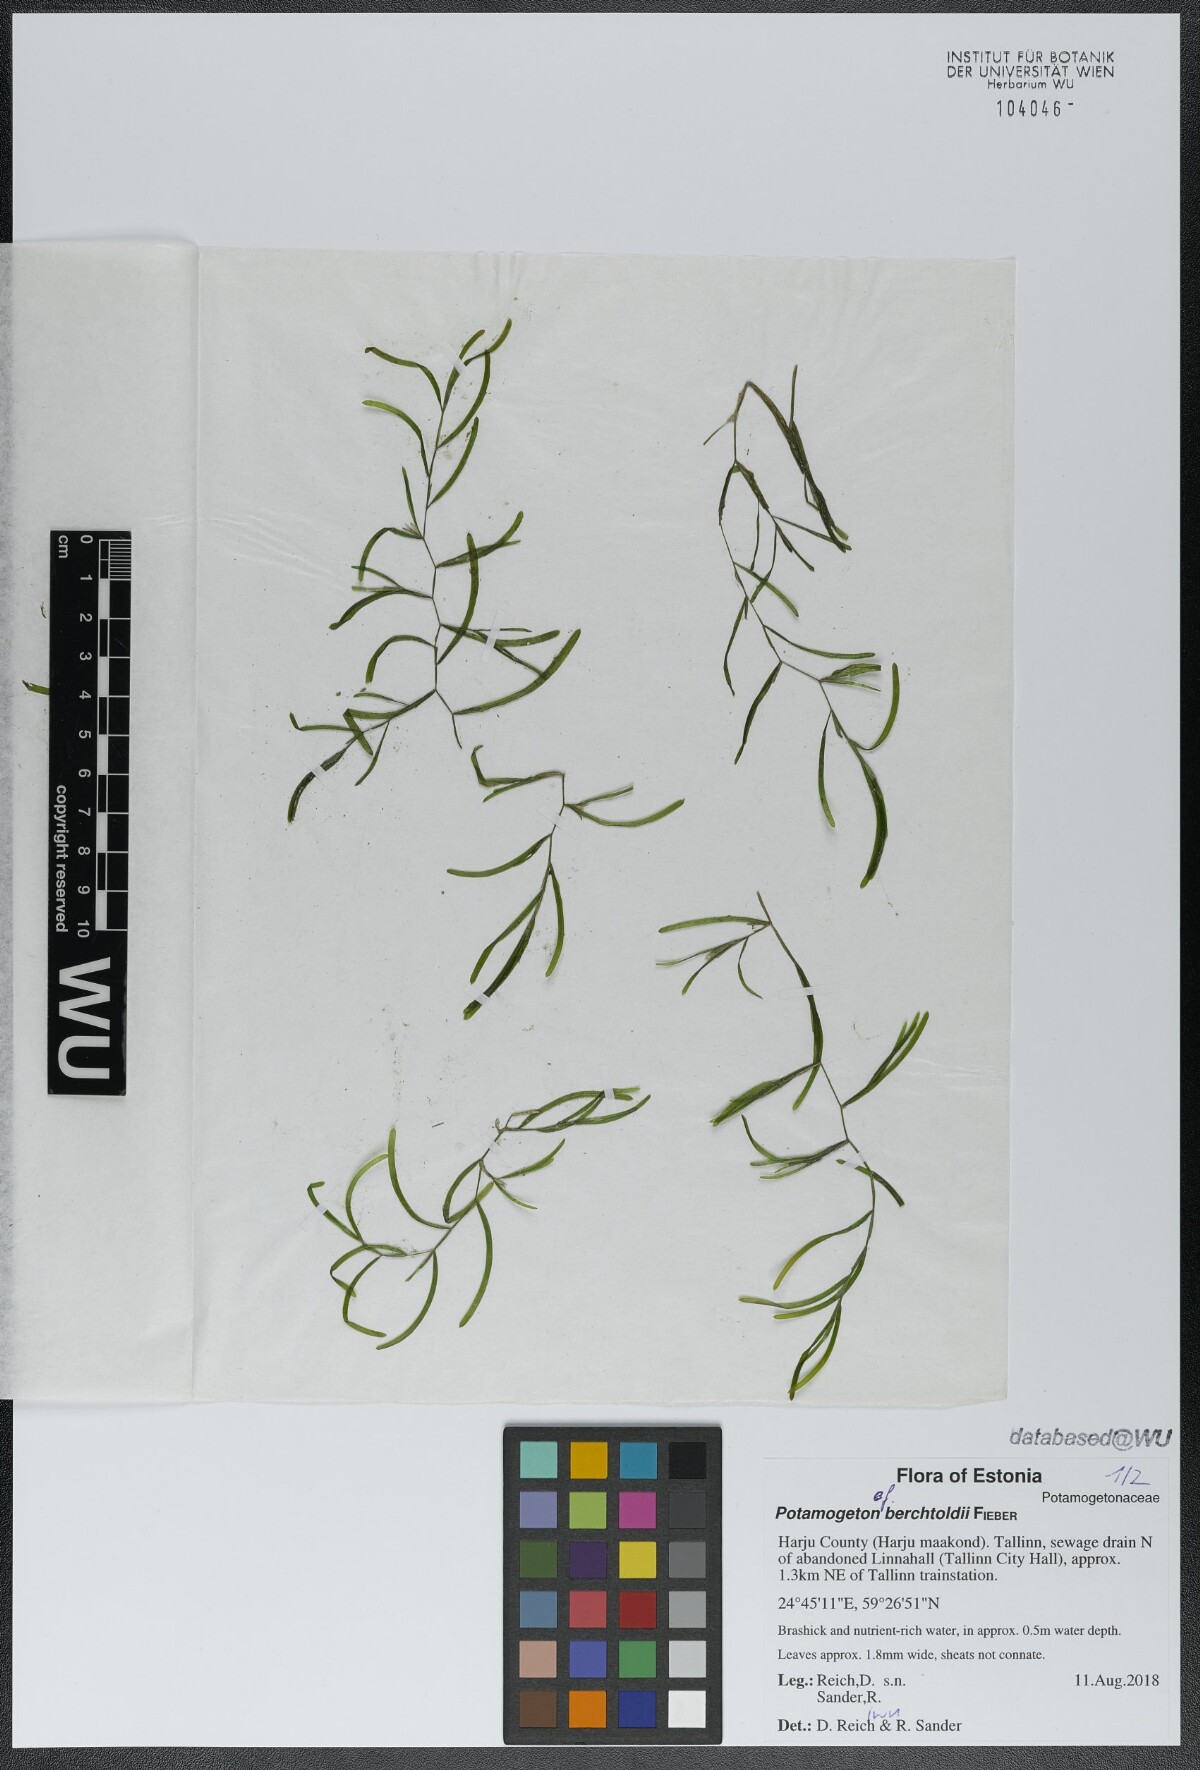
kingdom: Plantae
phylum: Tracheophyta
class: Liliopsida
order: Alismatales
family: Potamogetonaceae
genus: Potamogeton
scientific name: Potamogeton berchtoldii
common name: Small pondweed
